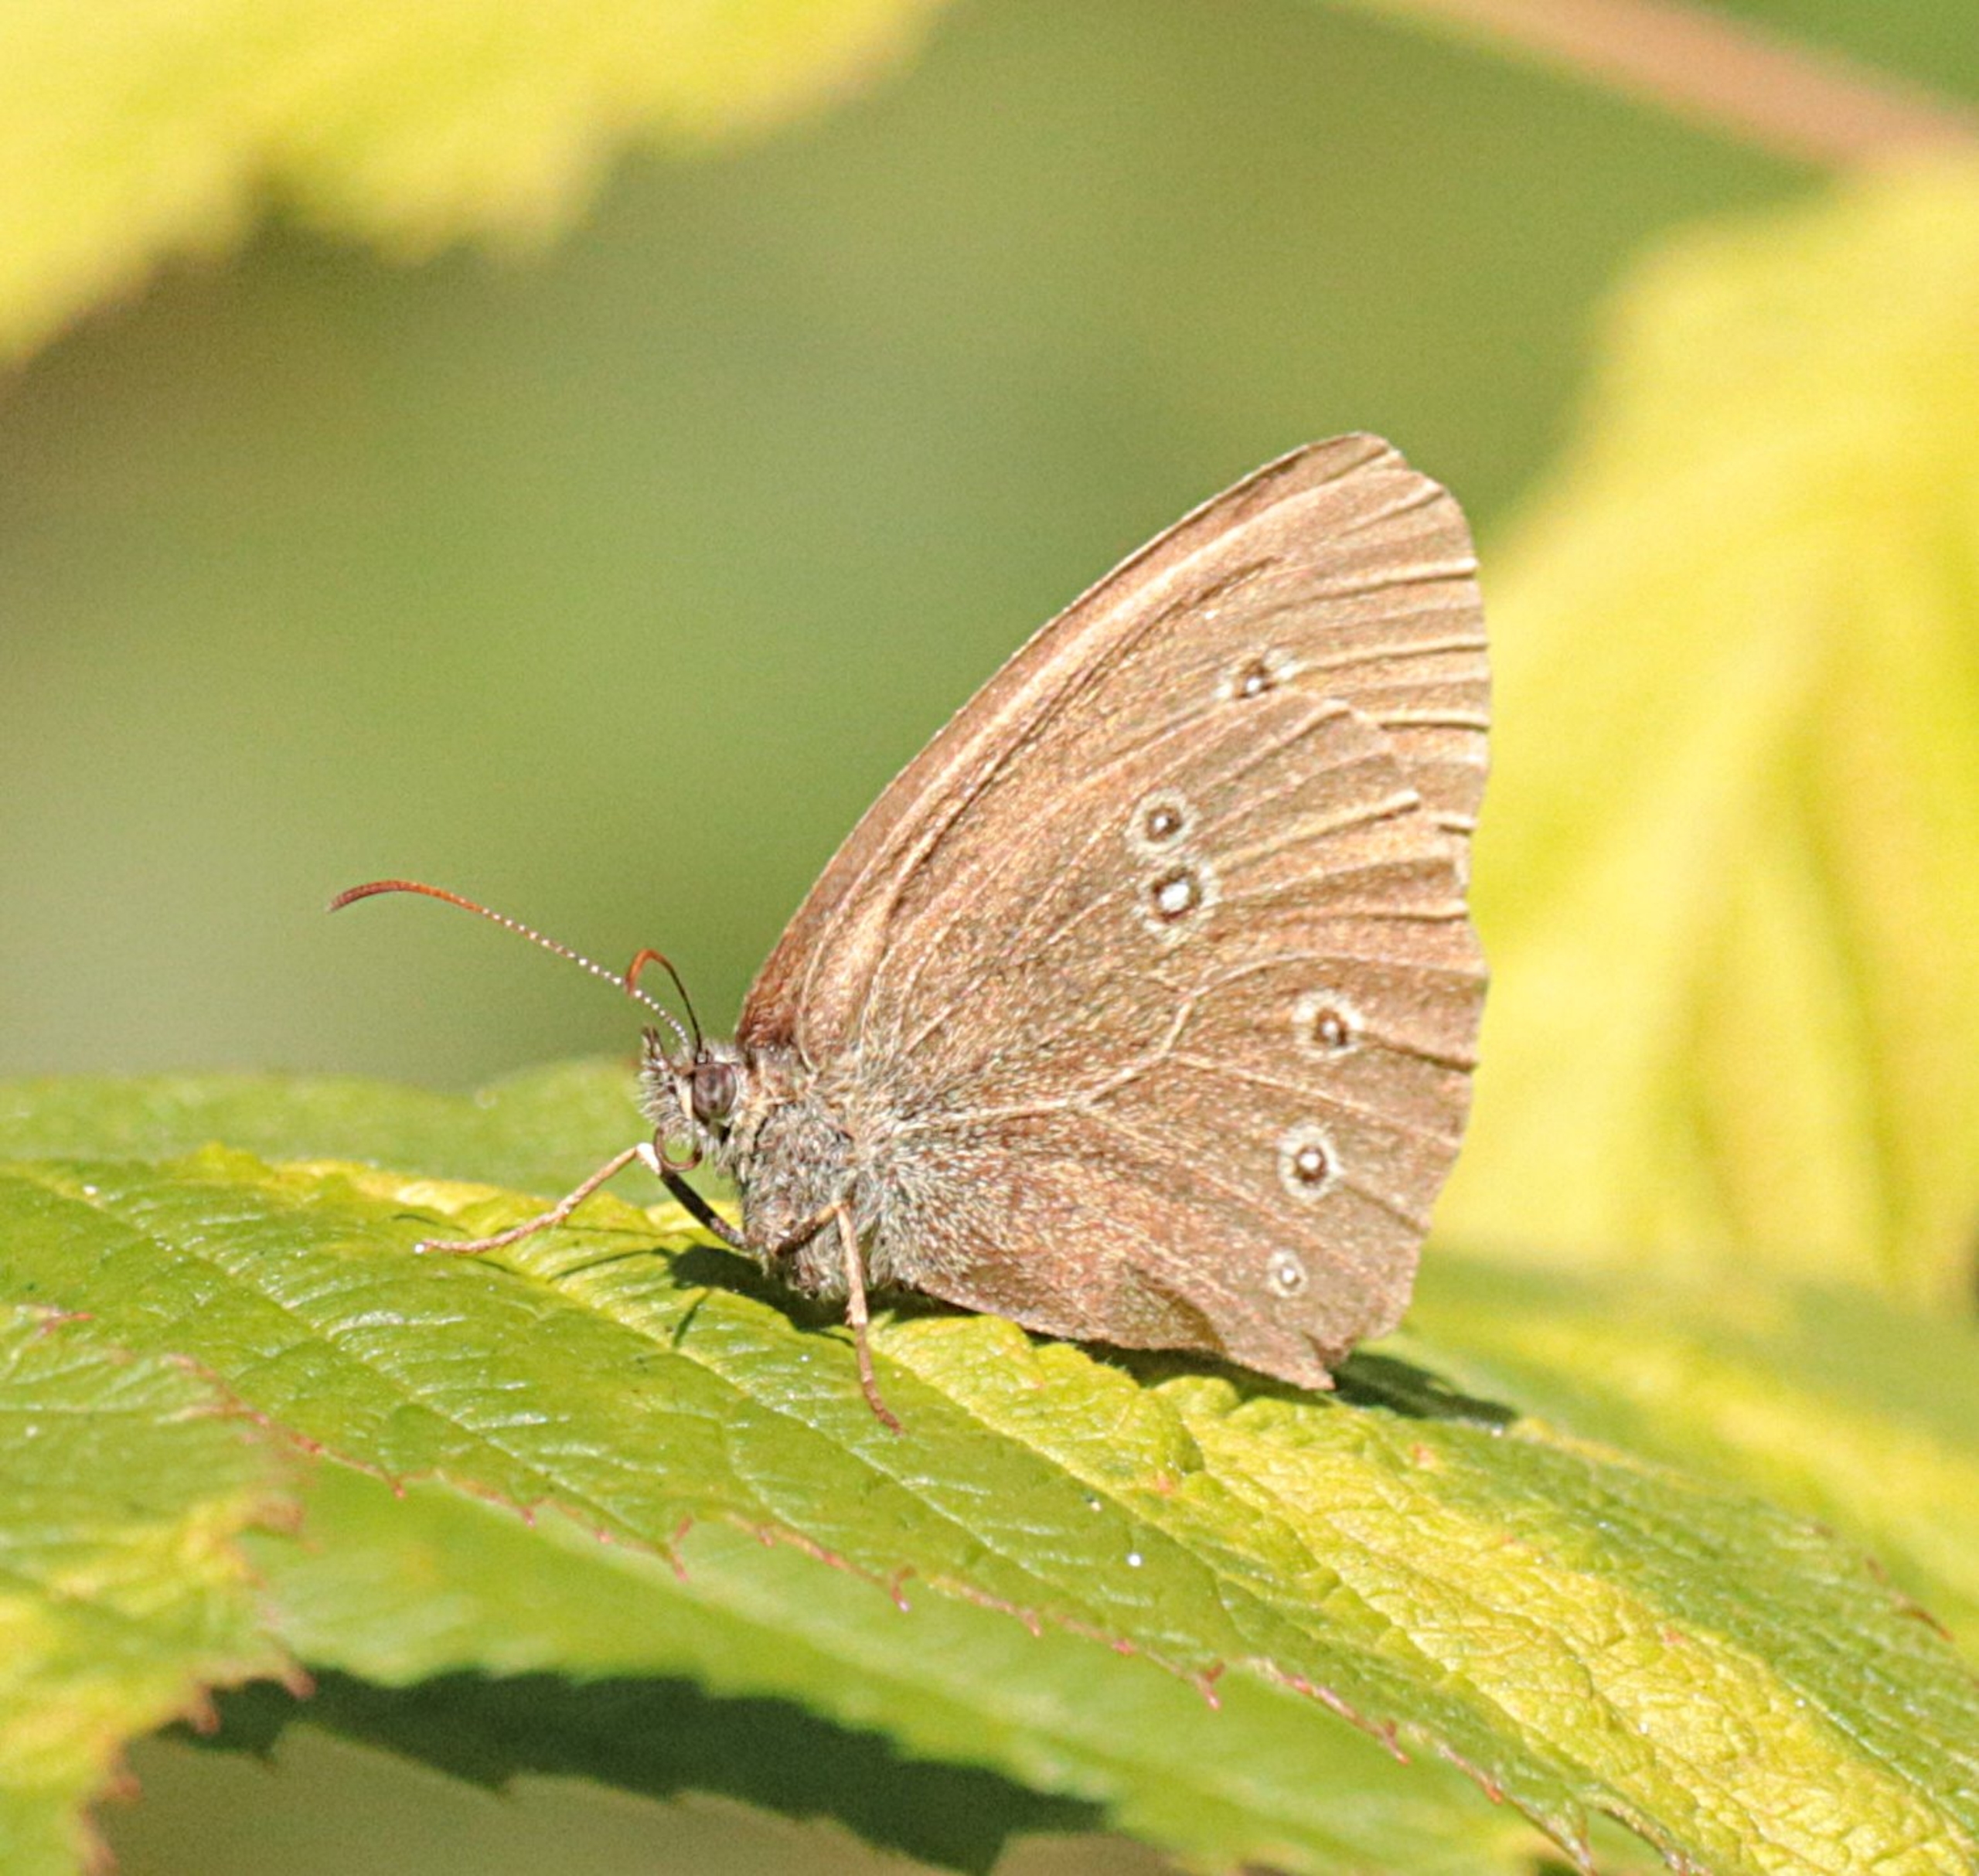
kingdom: Animalia
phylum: Arthropoda
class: Insecta
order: Lepidoptera
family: Nymphalidae
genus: Aphantopus
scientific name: Aphantopus hyperantus
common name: Engrandøje
